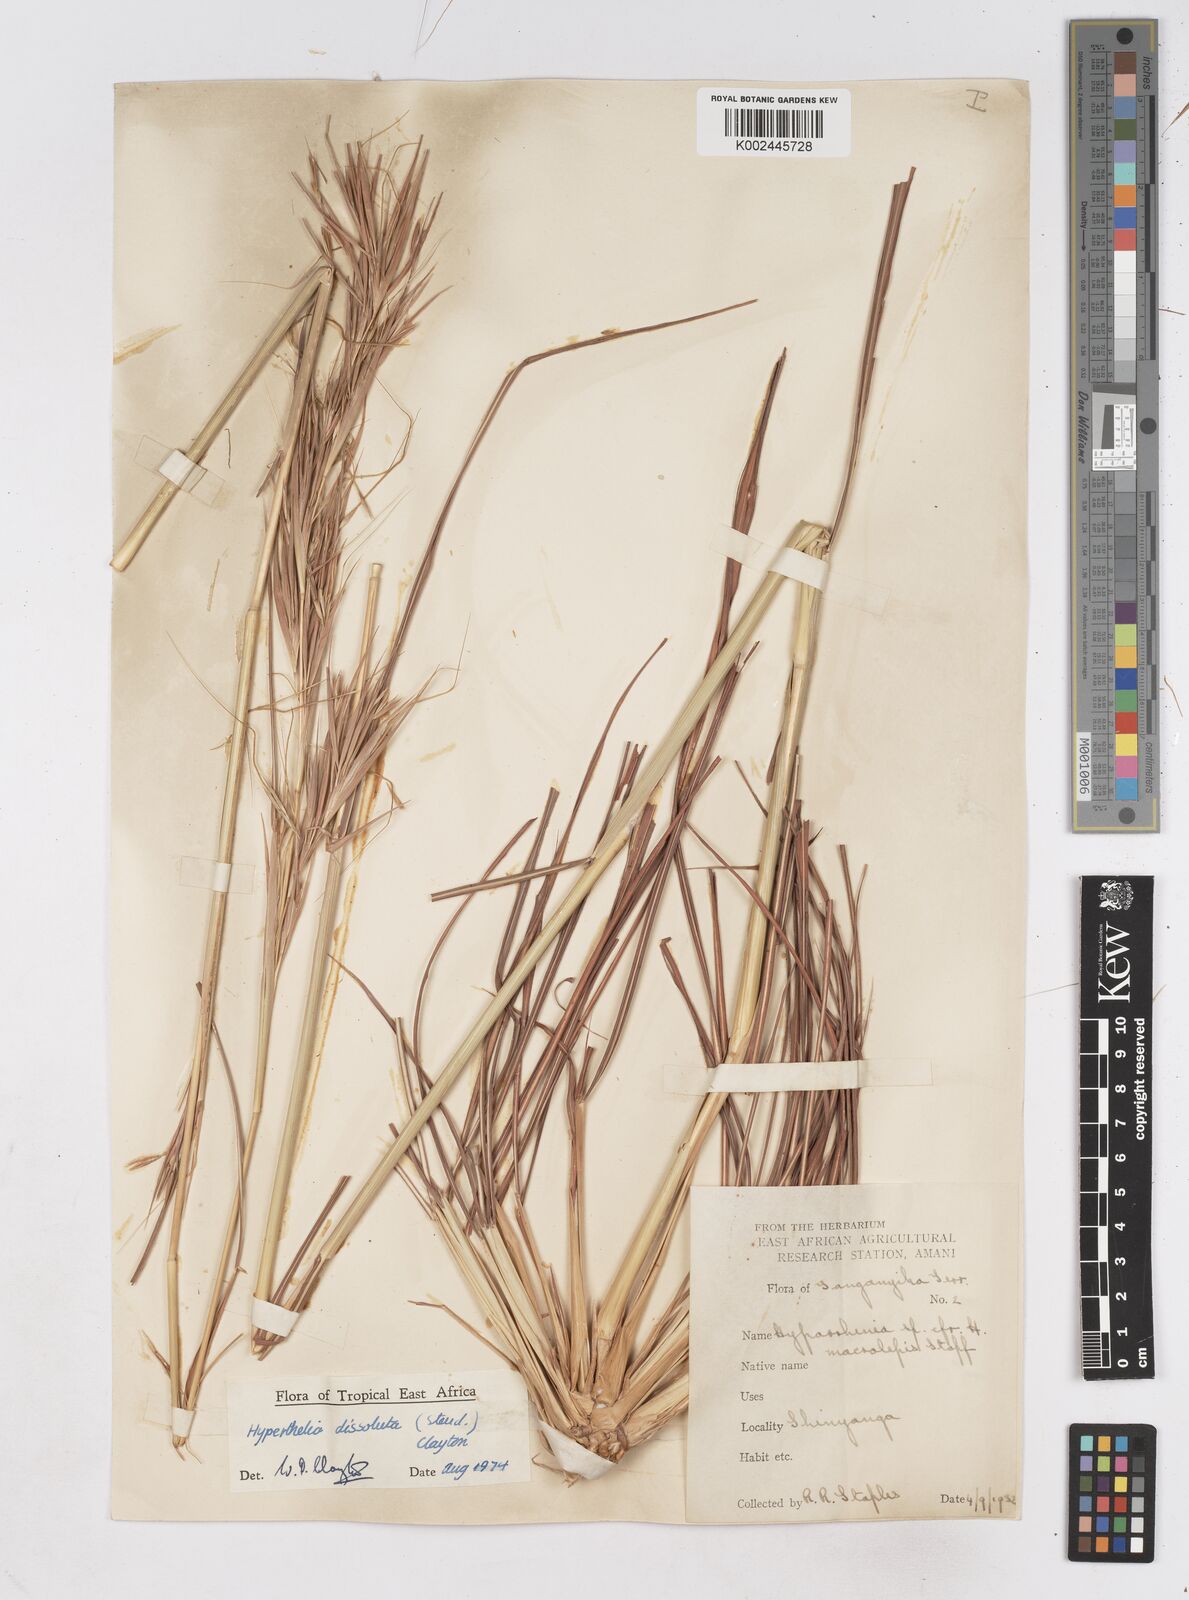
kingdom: Plantae
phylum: Tracheophyta
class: Liliopsida
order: Poales
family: Poaceae
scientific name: Poaceae
